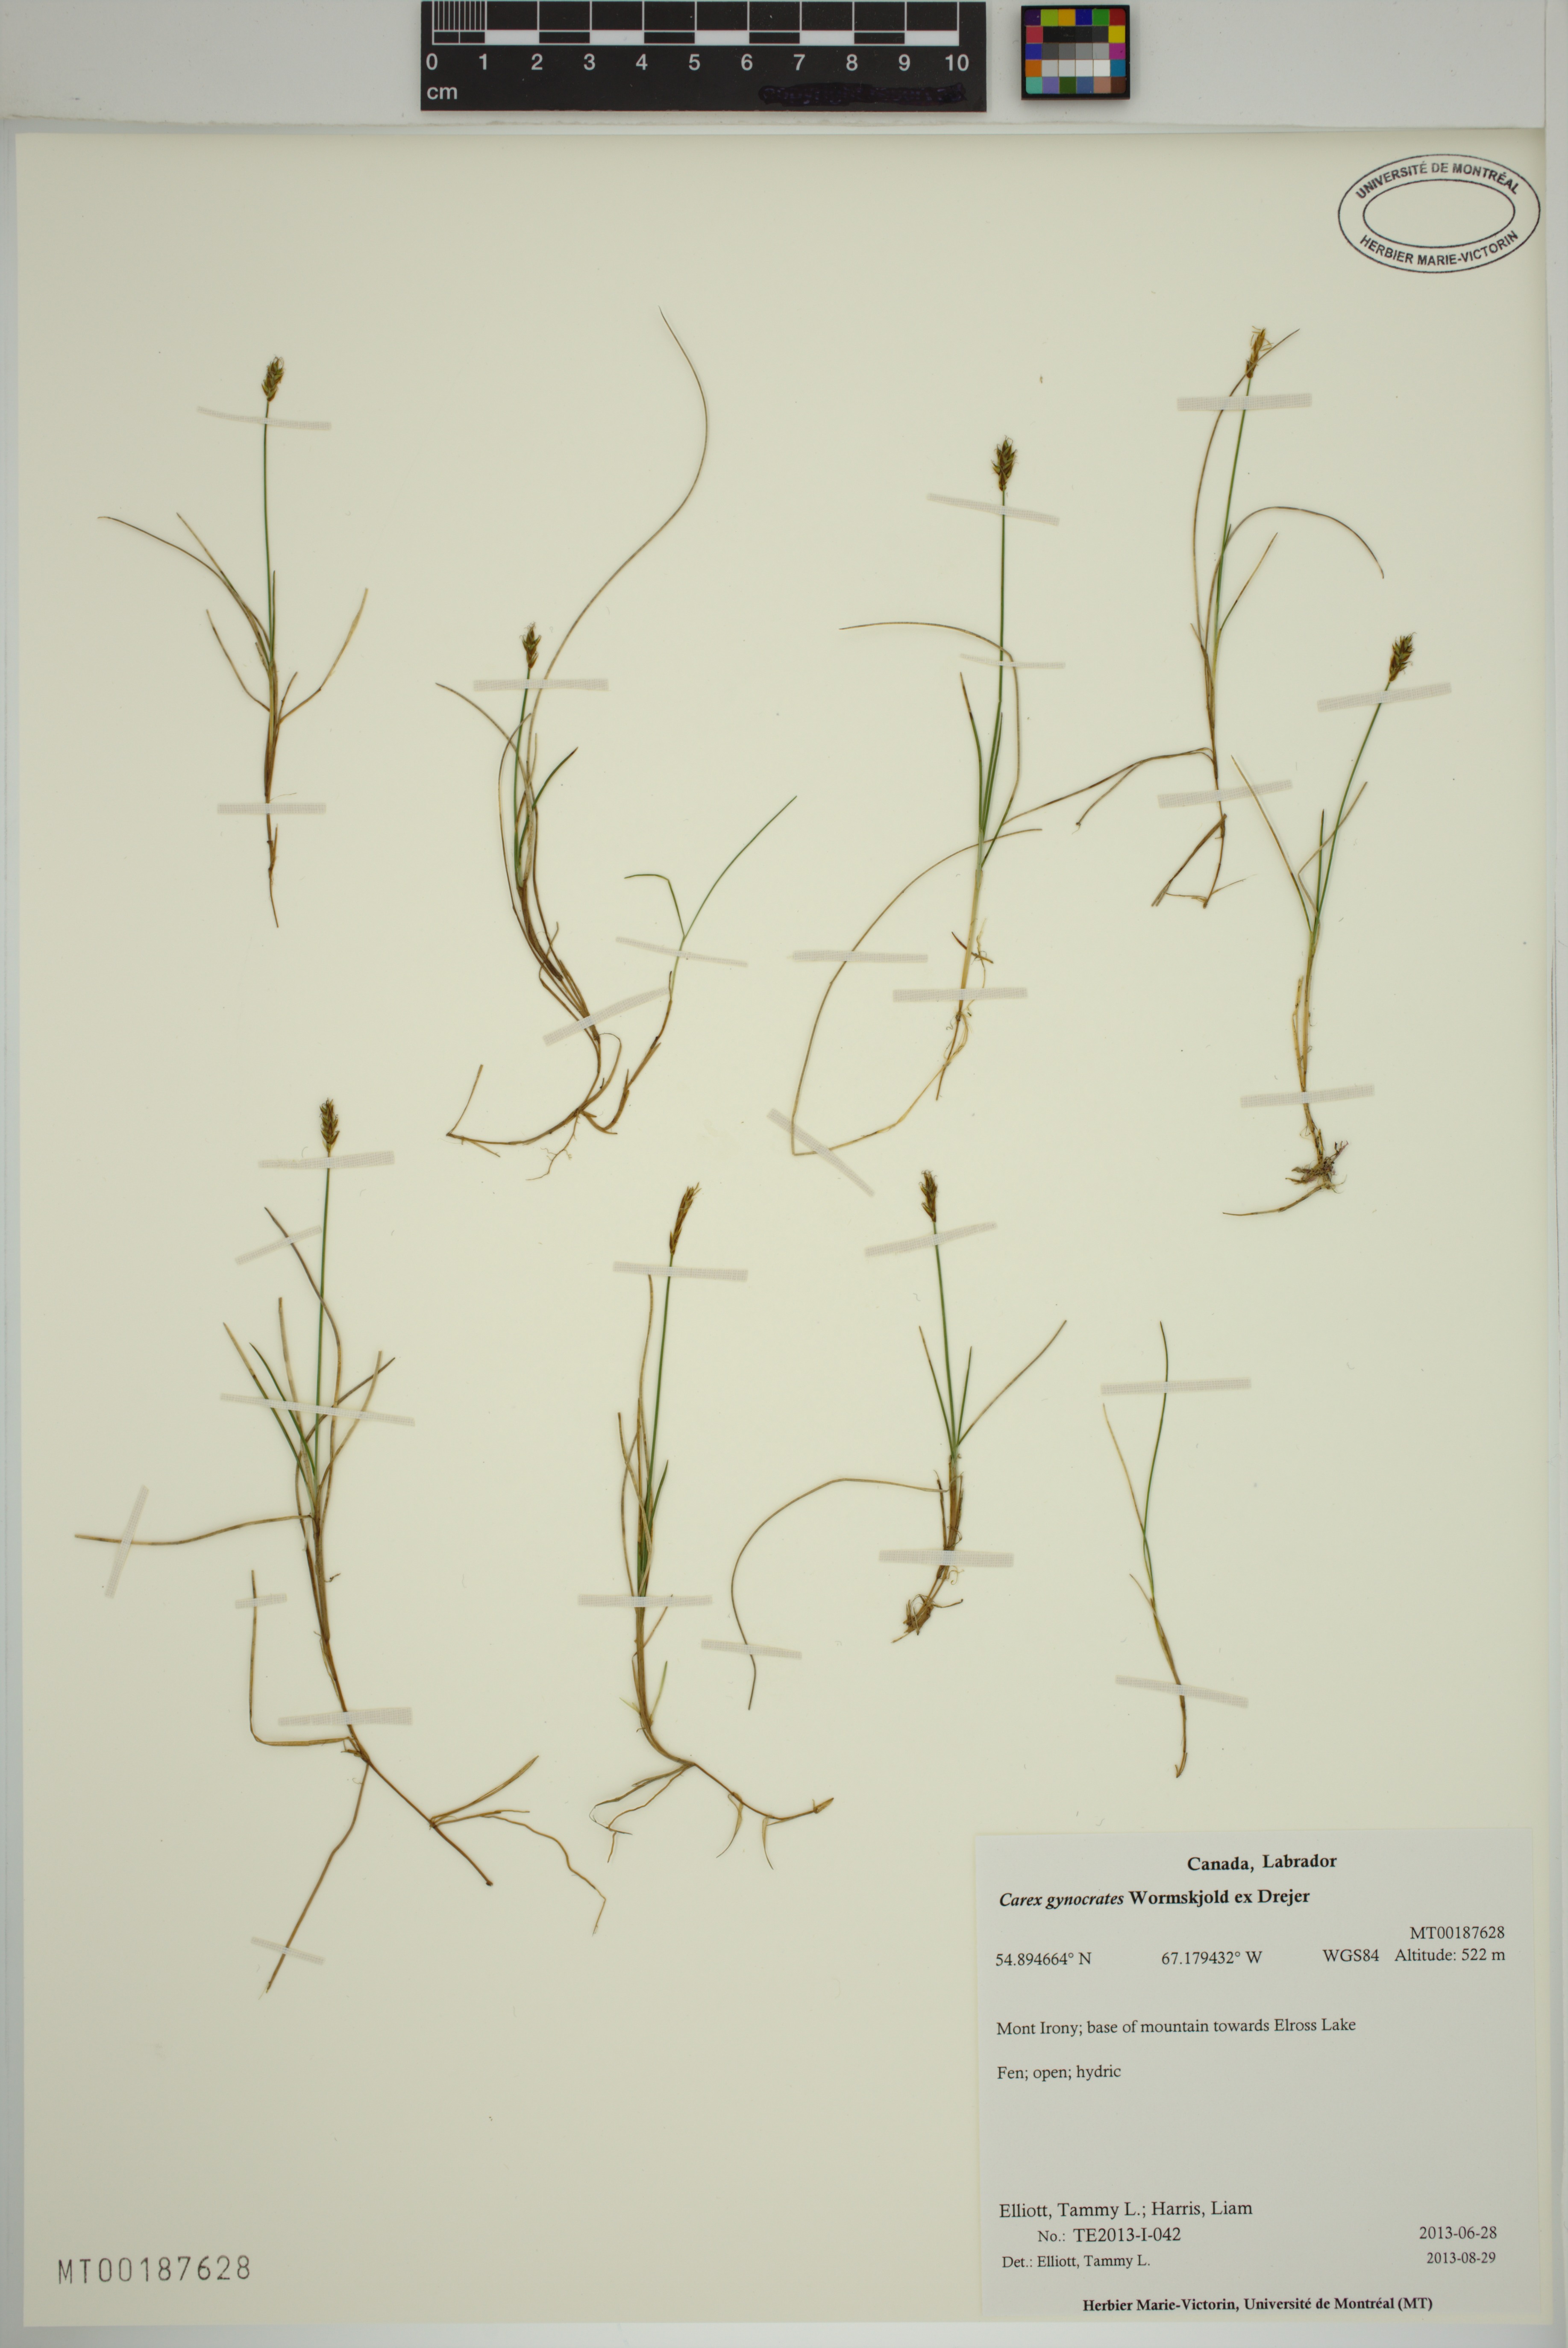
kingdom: Plantae
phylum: Tracheophyta
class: Liliopsida
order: Poales
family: Cyperaceae
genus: Carex
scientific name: Carex nardina
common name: Nard sedge
